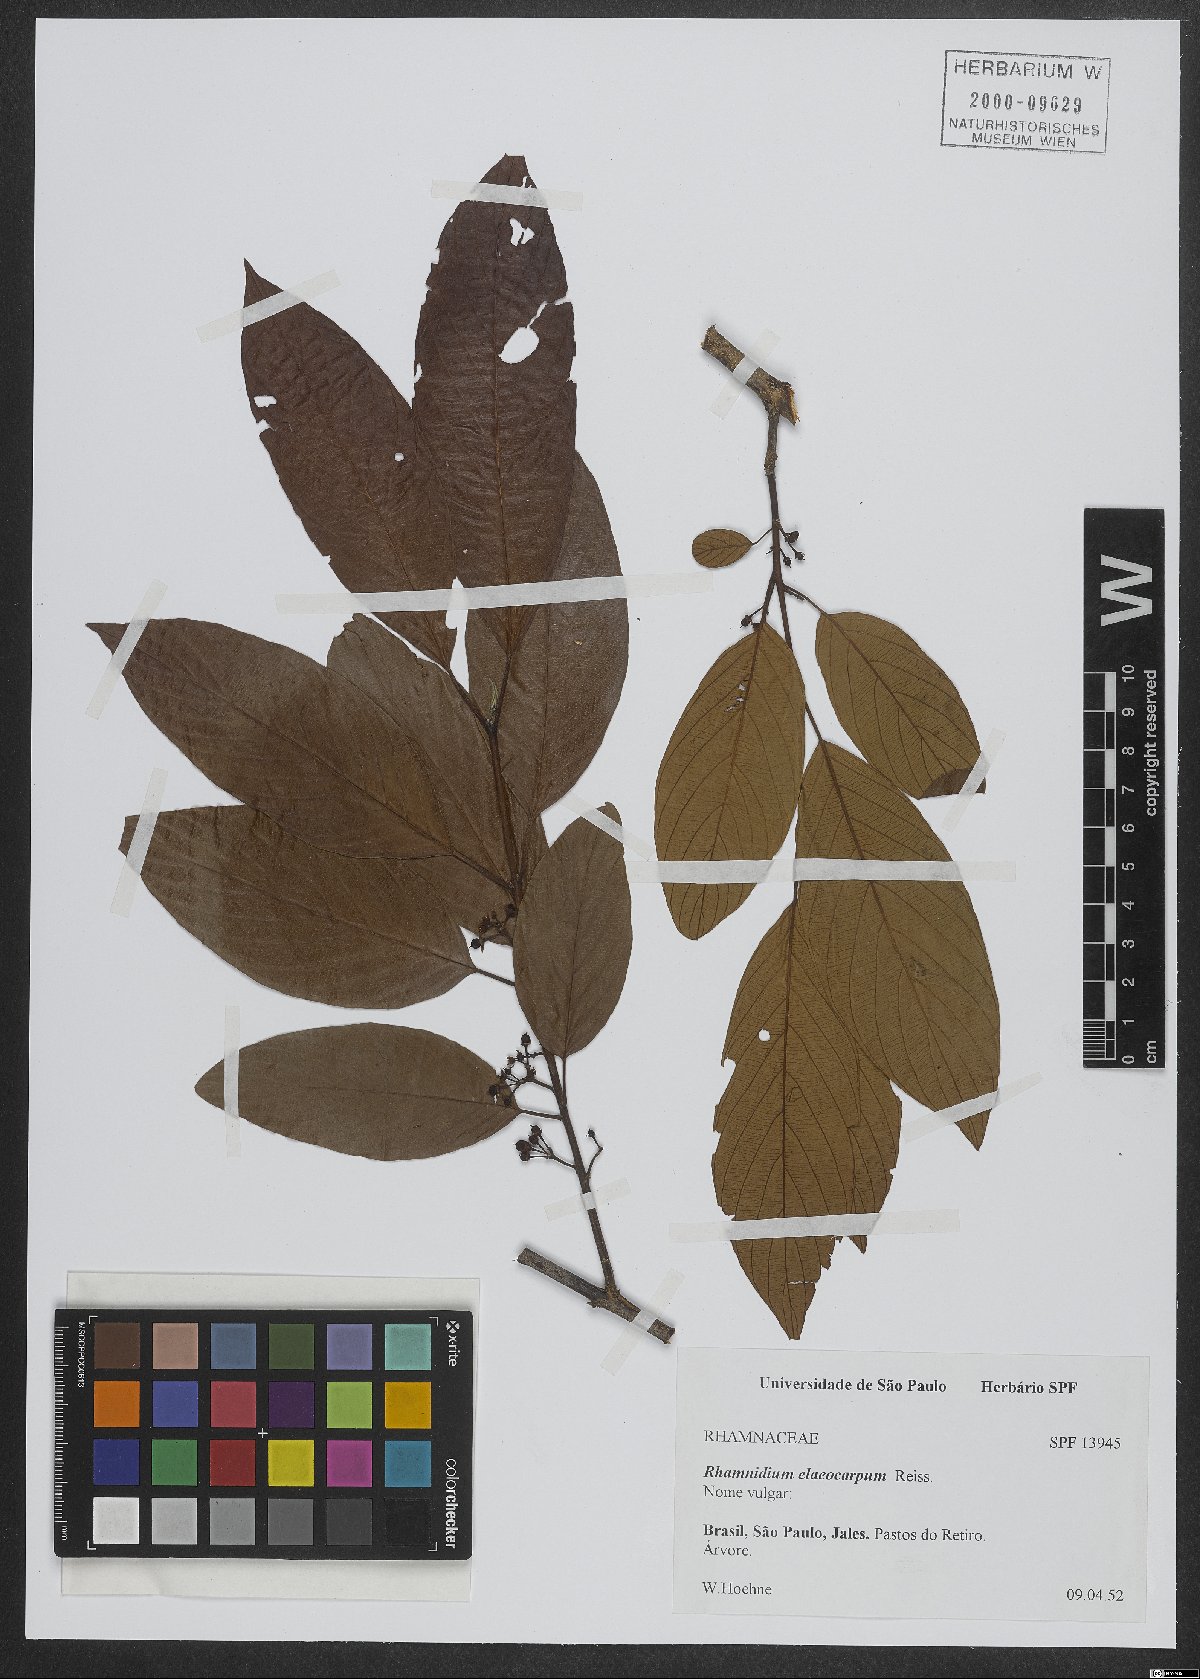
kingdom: Plantae
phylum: Tracheophyta
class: Magnoliopsida
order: Rosales
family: Rhamnaceae
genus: Rhamnidium
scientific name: Rhamnidium elaeocarpum
